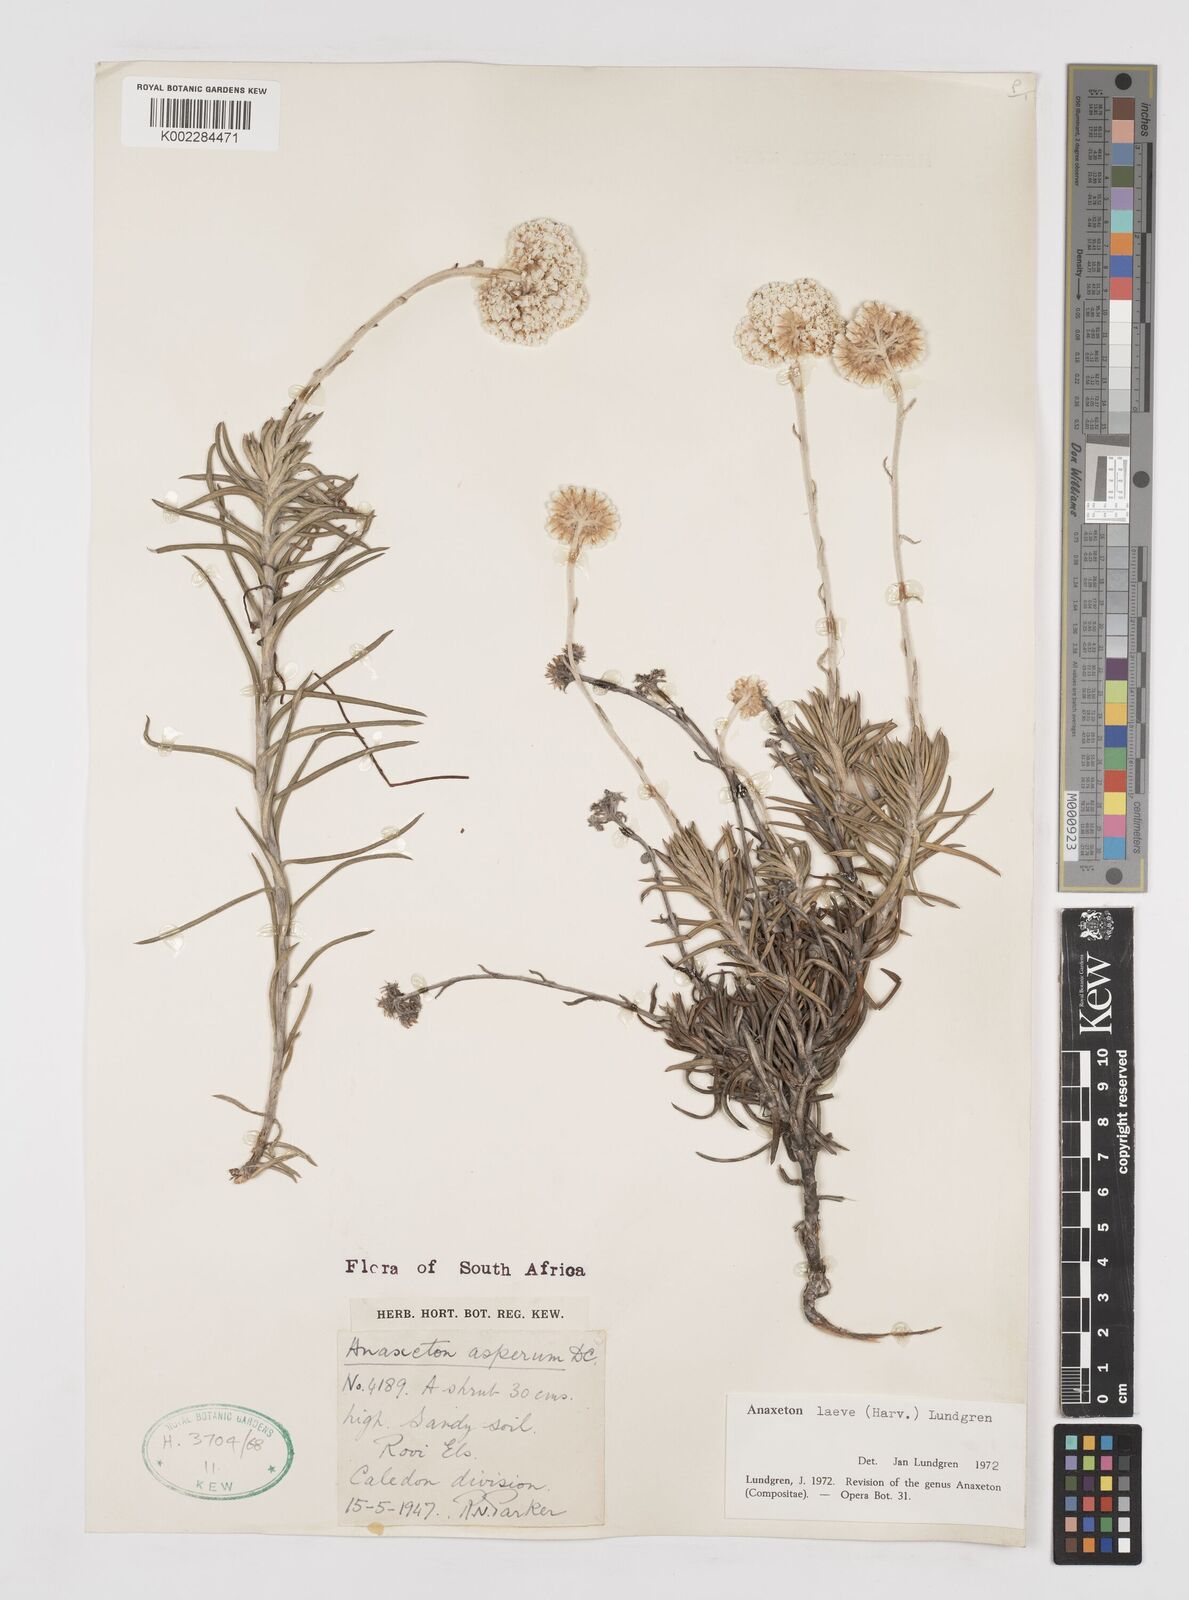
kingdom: Plantae
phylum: Tracheophyta
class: Magnoliopsida
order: Asterales
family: Asteraceae
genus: Anaxeton
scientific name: Anaxeton laeve
